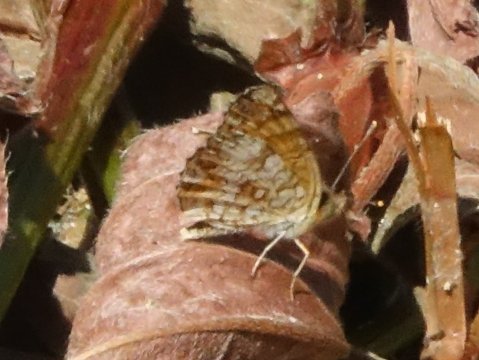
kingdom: Animalia
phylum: Arthropoda
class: Insecta
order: Lepidoptera
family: Nymphalidae
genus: Eresia
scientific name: Eresia aveyrona
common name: Mylitta Crescent
